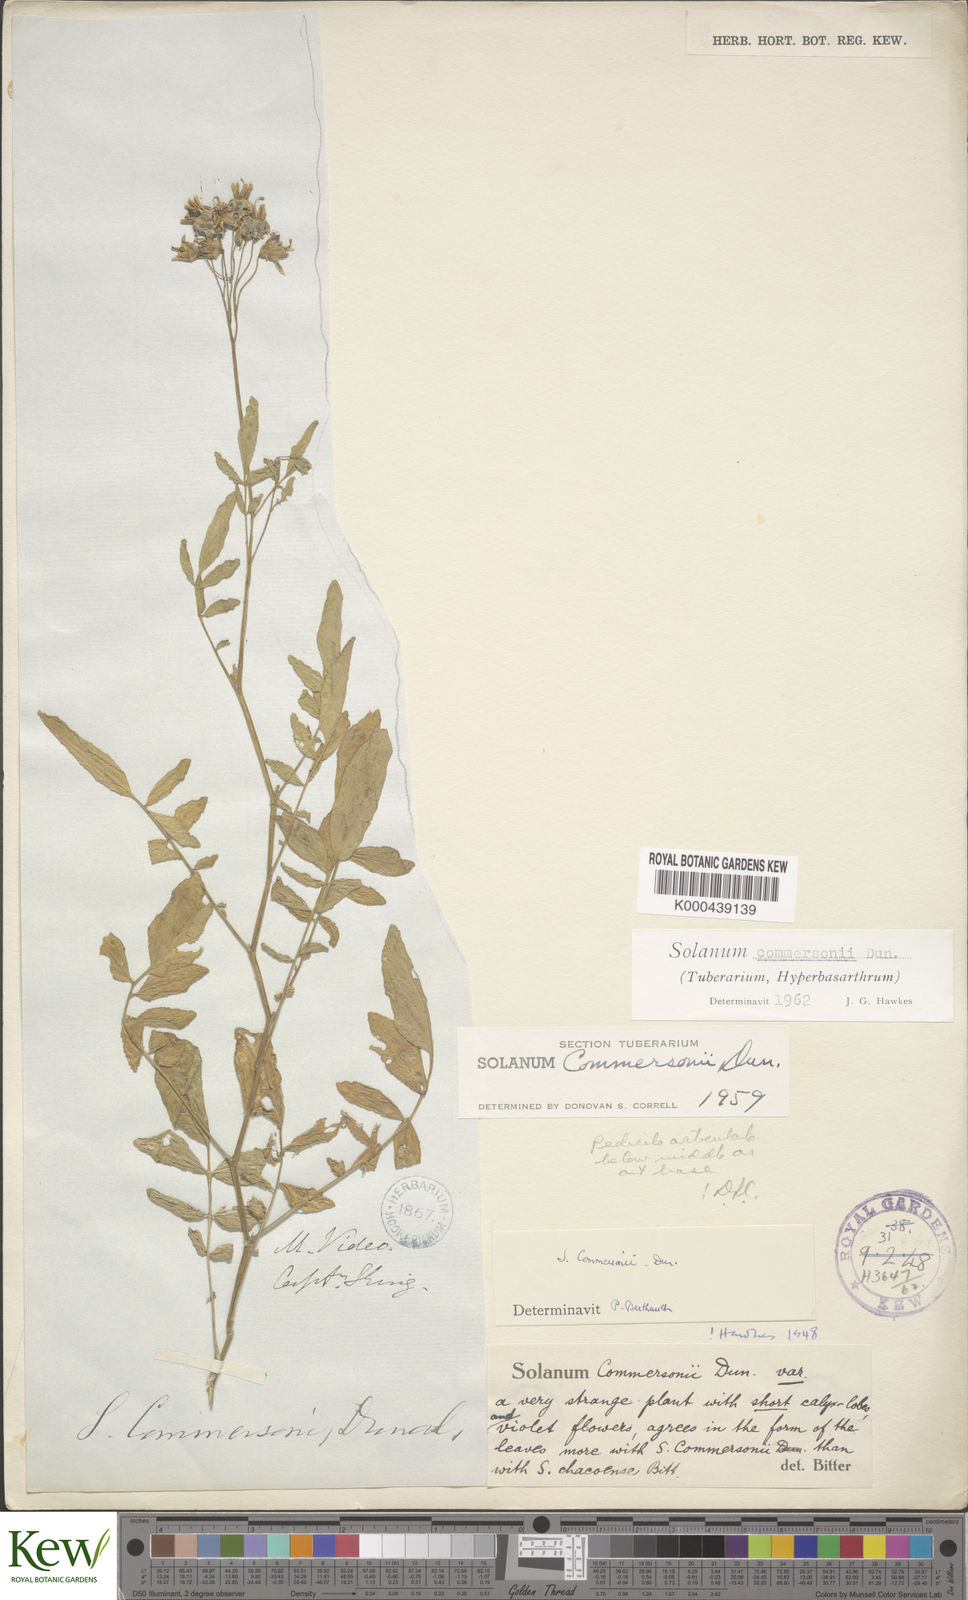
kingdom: Plantae
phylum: Tracheophyta
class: Magnoliopsida
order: Solanales
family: Solanaceae
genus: Solanum
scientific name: Solanum commersonii
